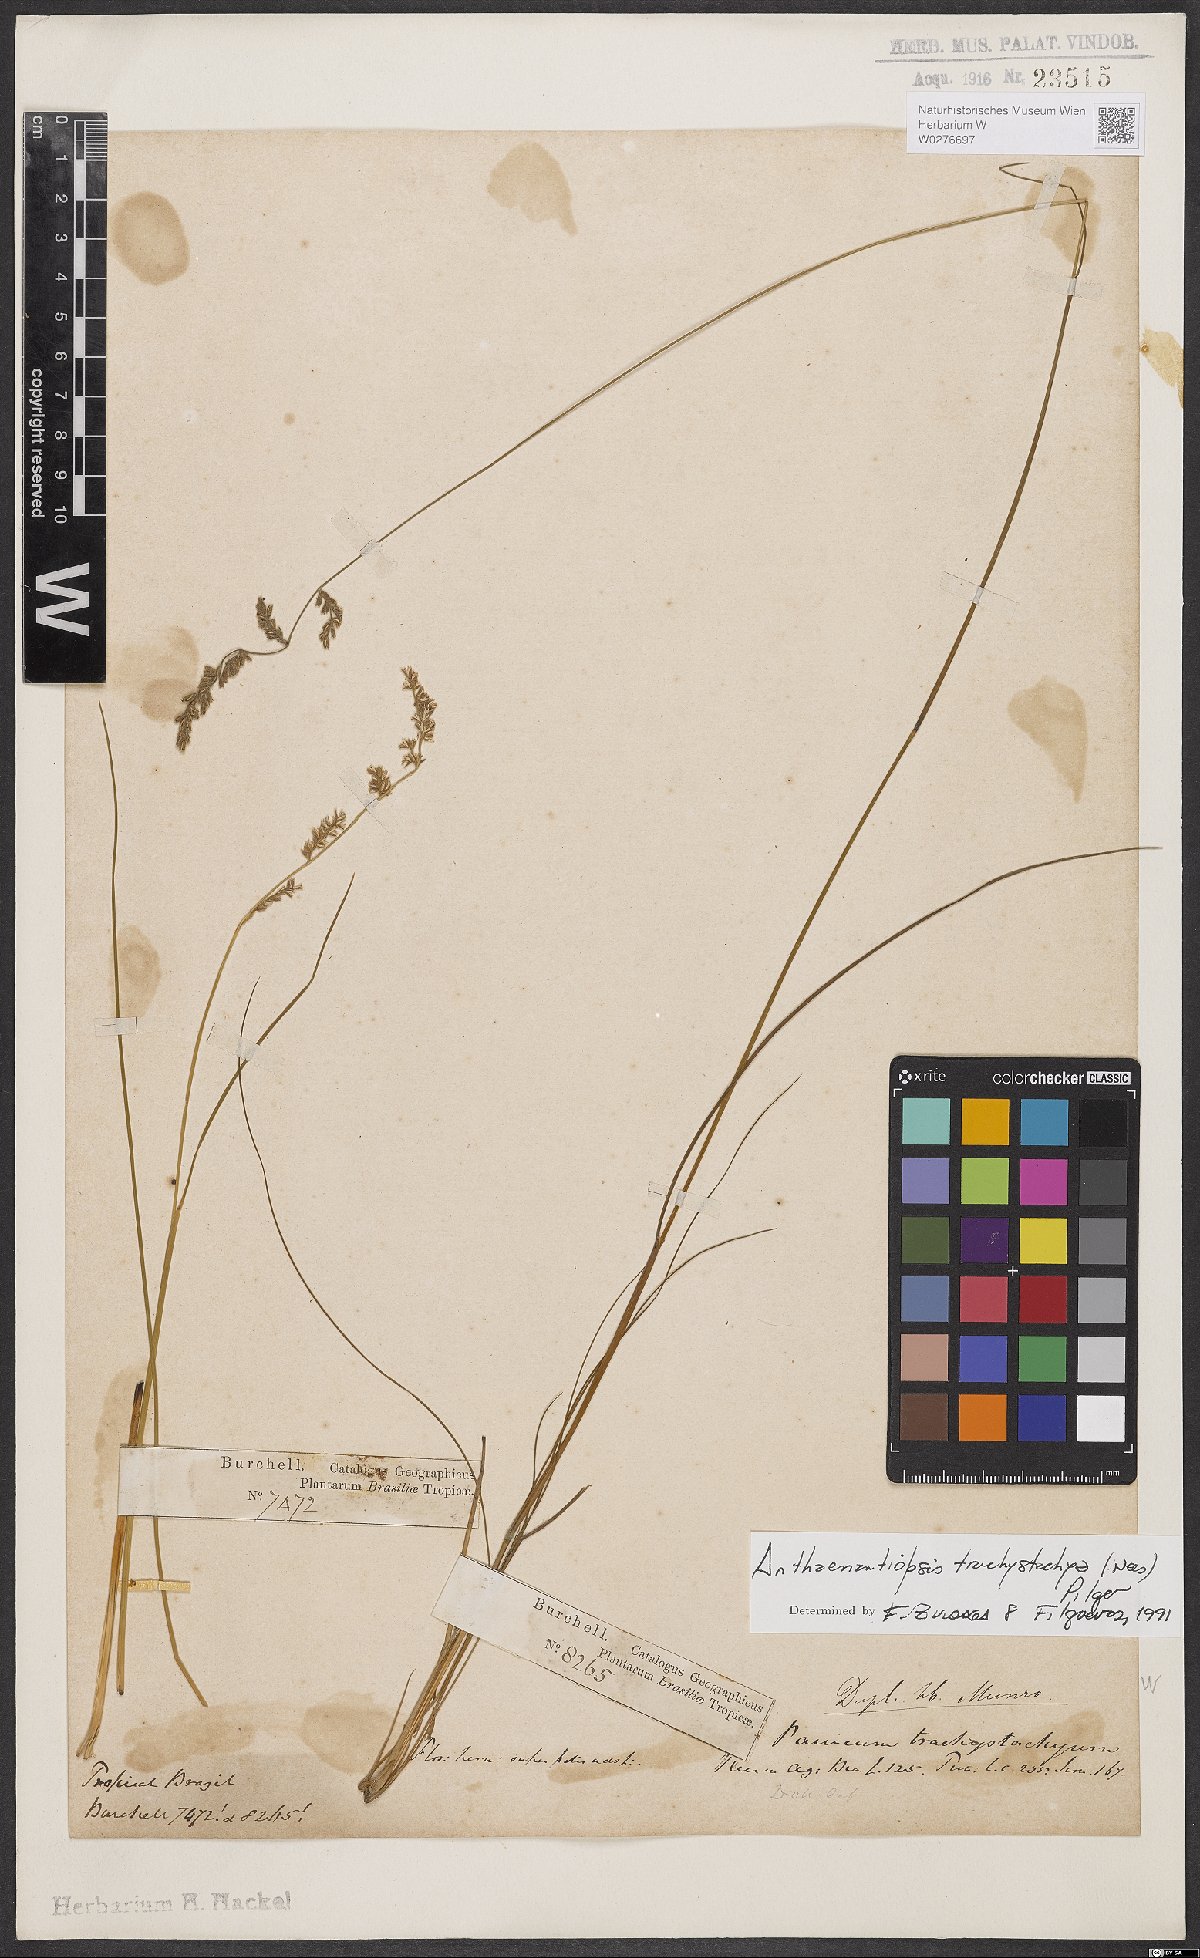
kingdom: Plantae
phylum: Tracheophyta
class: Liliopsida
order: Poales
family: Poaceae
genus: Anthaenantiopsis
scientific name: Anthaenantiopsis trachystachya
